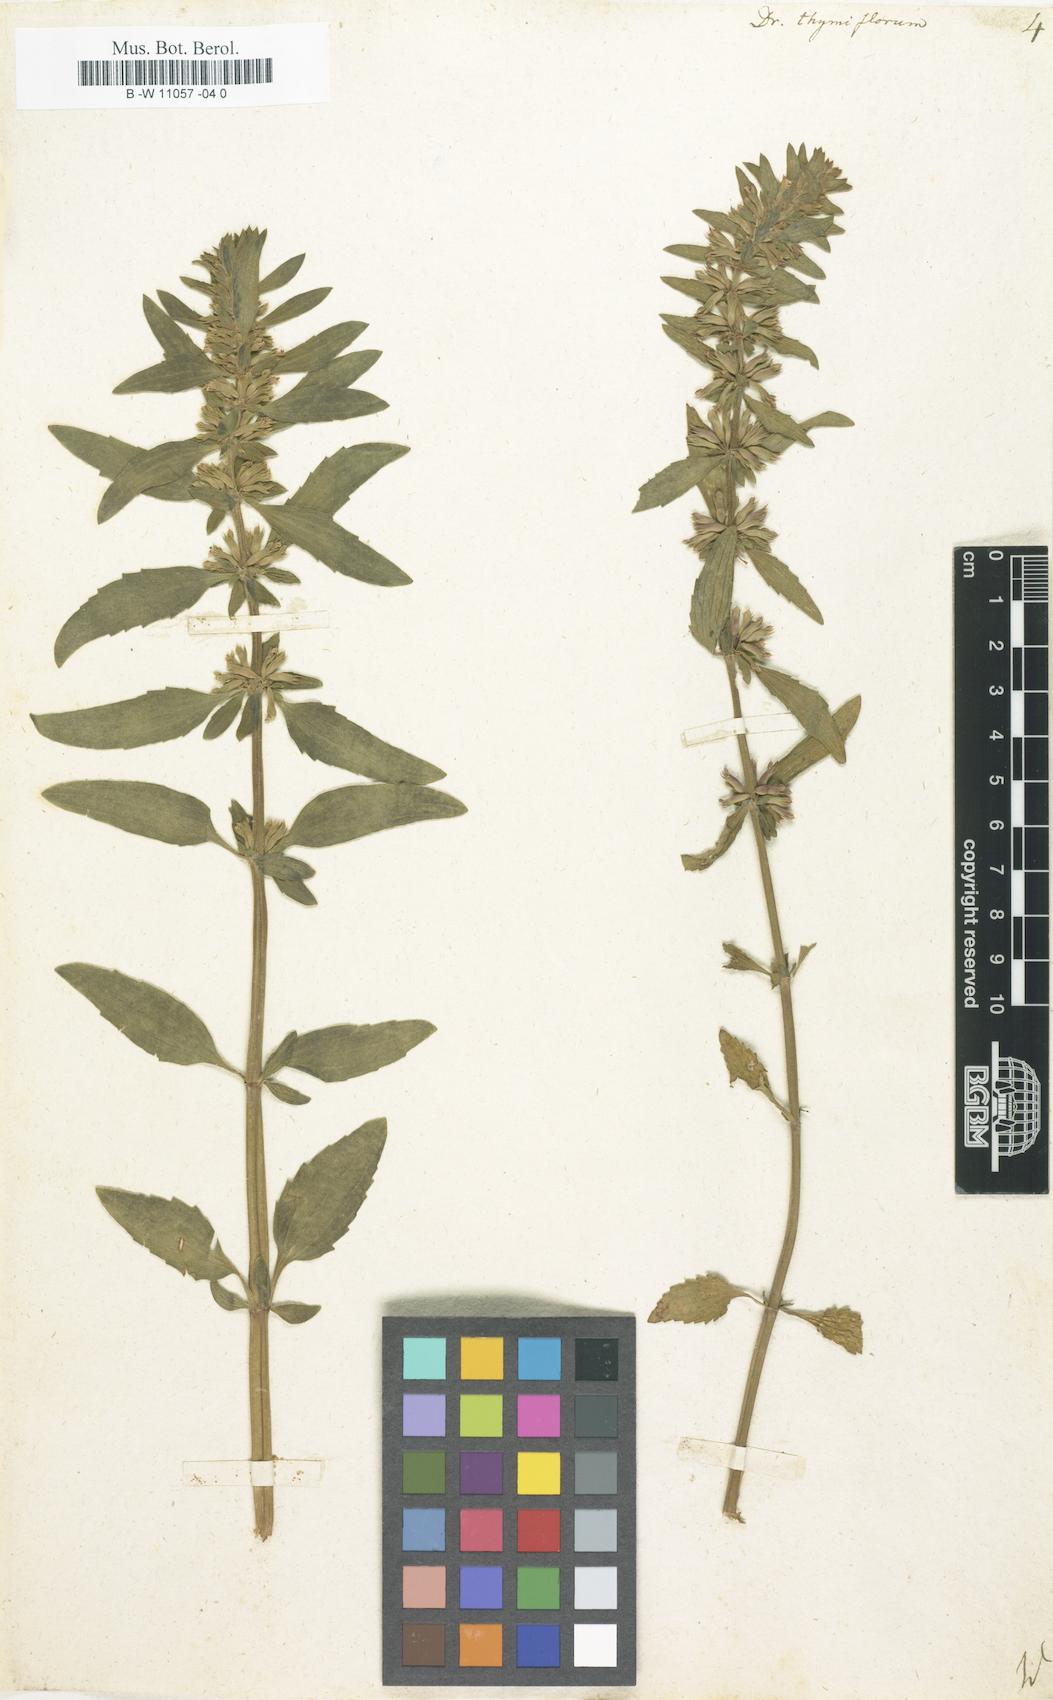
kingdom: Plantae
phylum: Tracheophyta
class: Magnoliopsida
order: Lamiales
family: Lamiaceae
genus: Dracocephalum
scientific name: Dracocephalum thymiflorum
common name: Thymeleaf dragonhead
